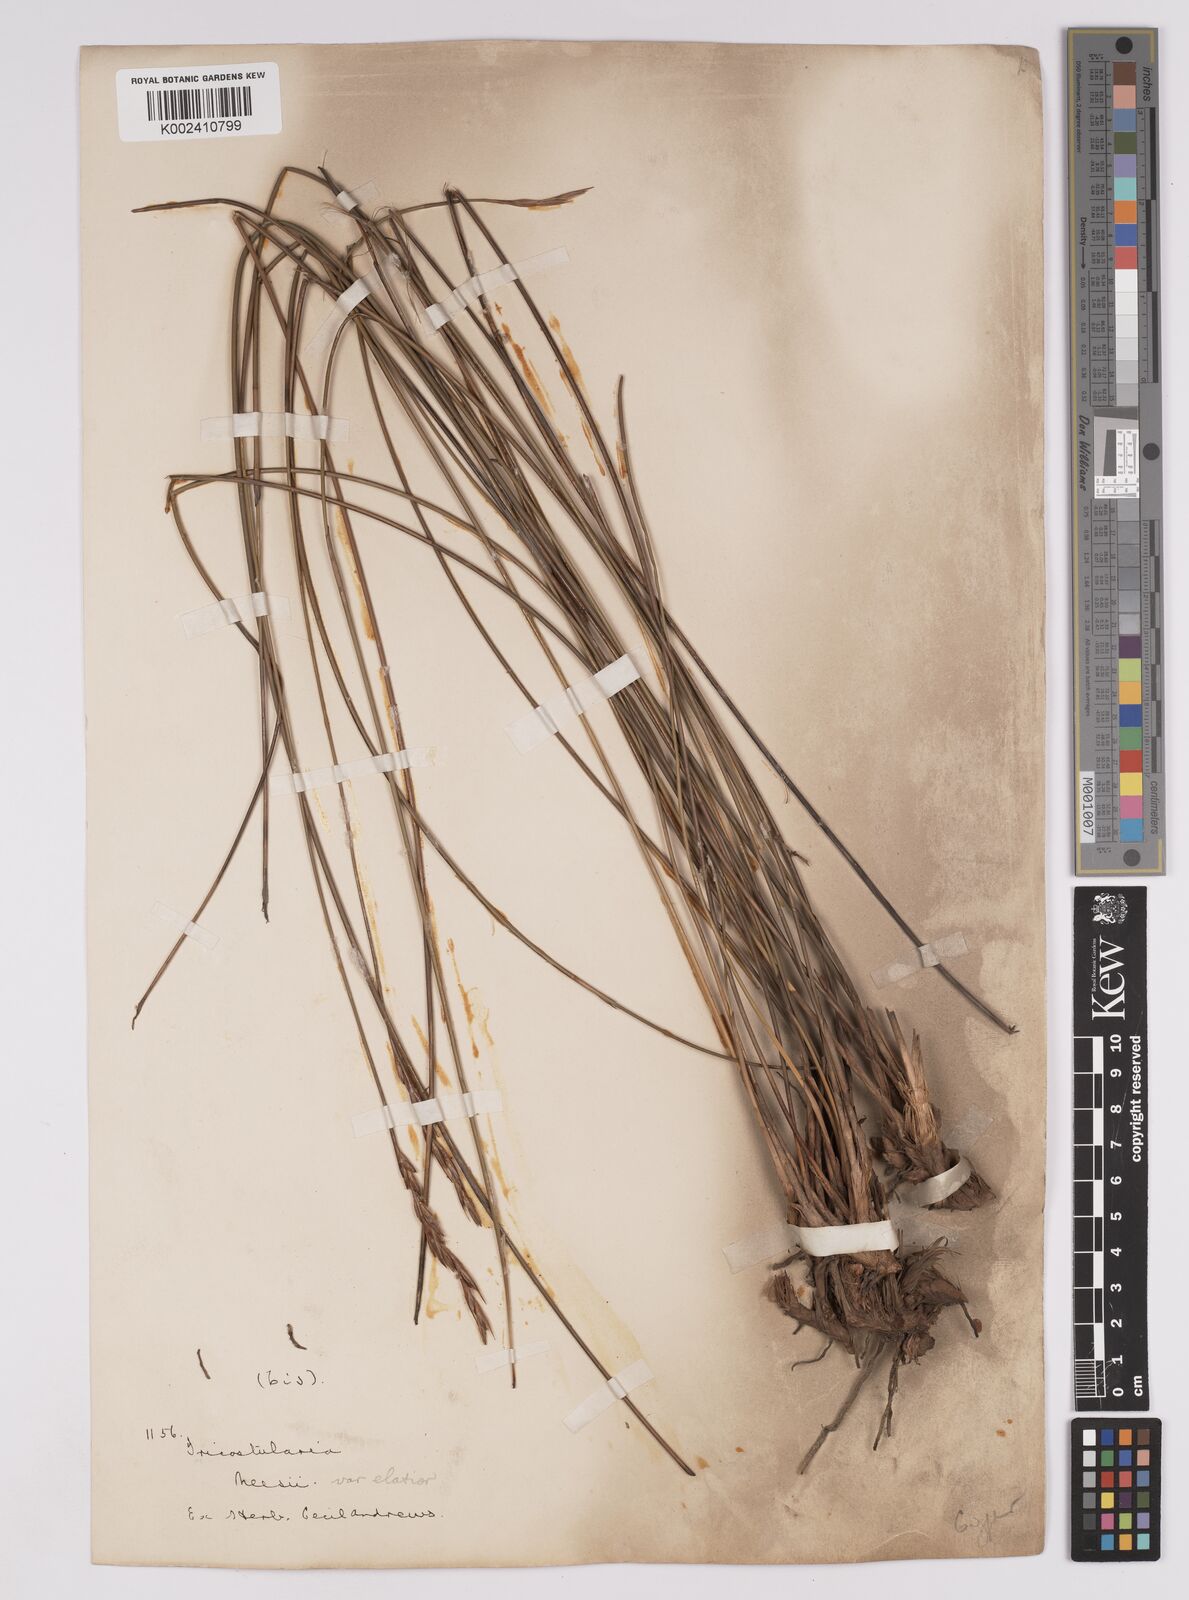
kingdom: Plantae
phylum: Tracheophyta
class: Liliopsida
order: Poales
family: Cyperaceae
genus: Tricostularia
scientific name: Tricostularia neesii
